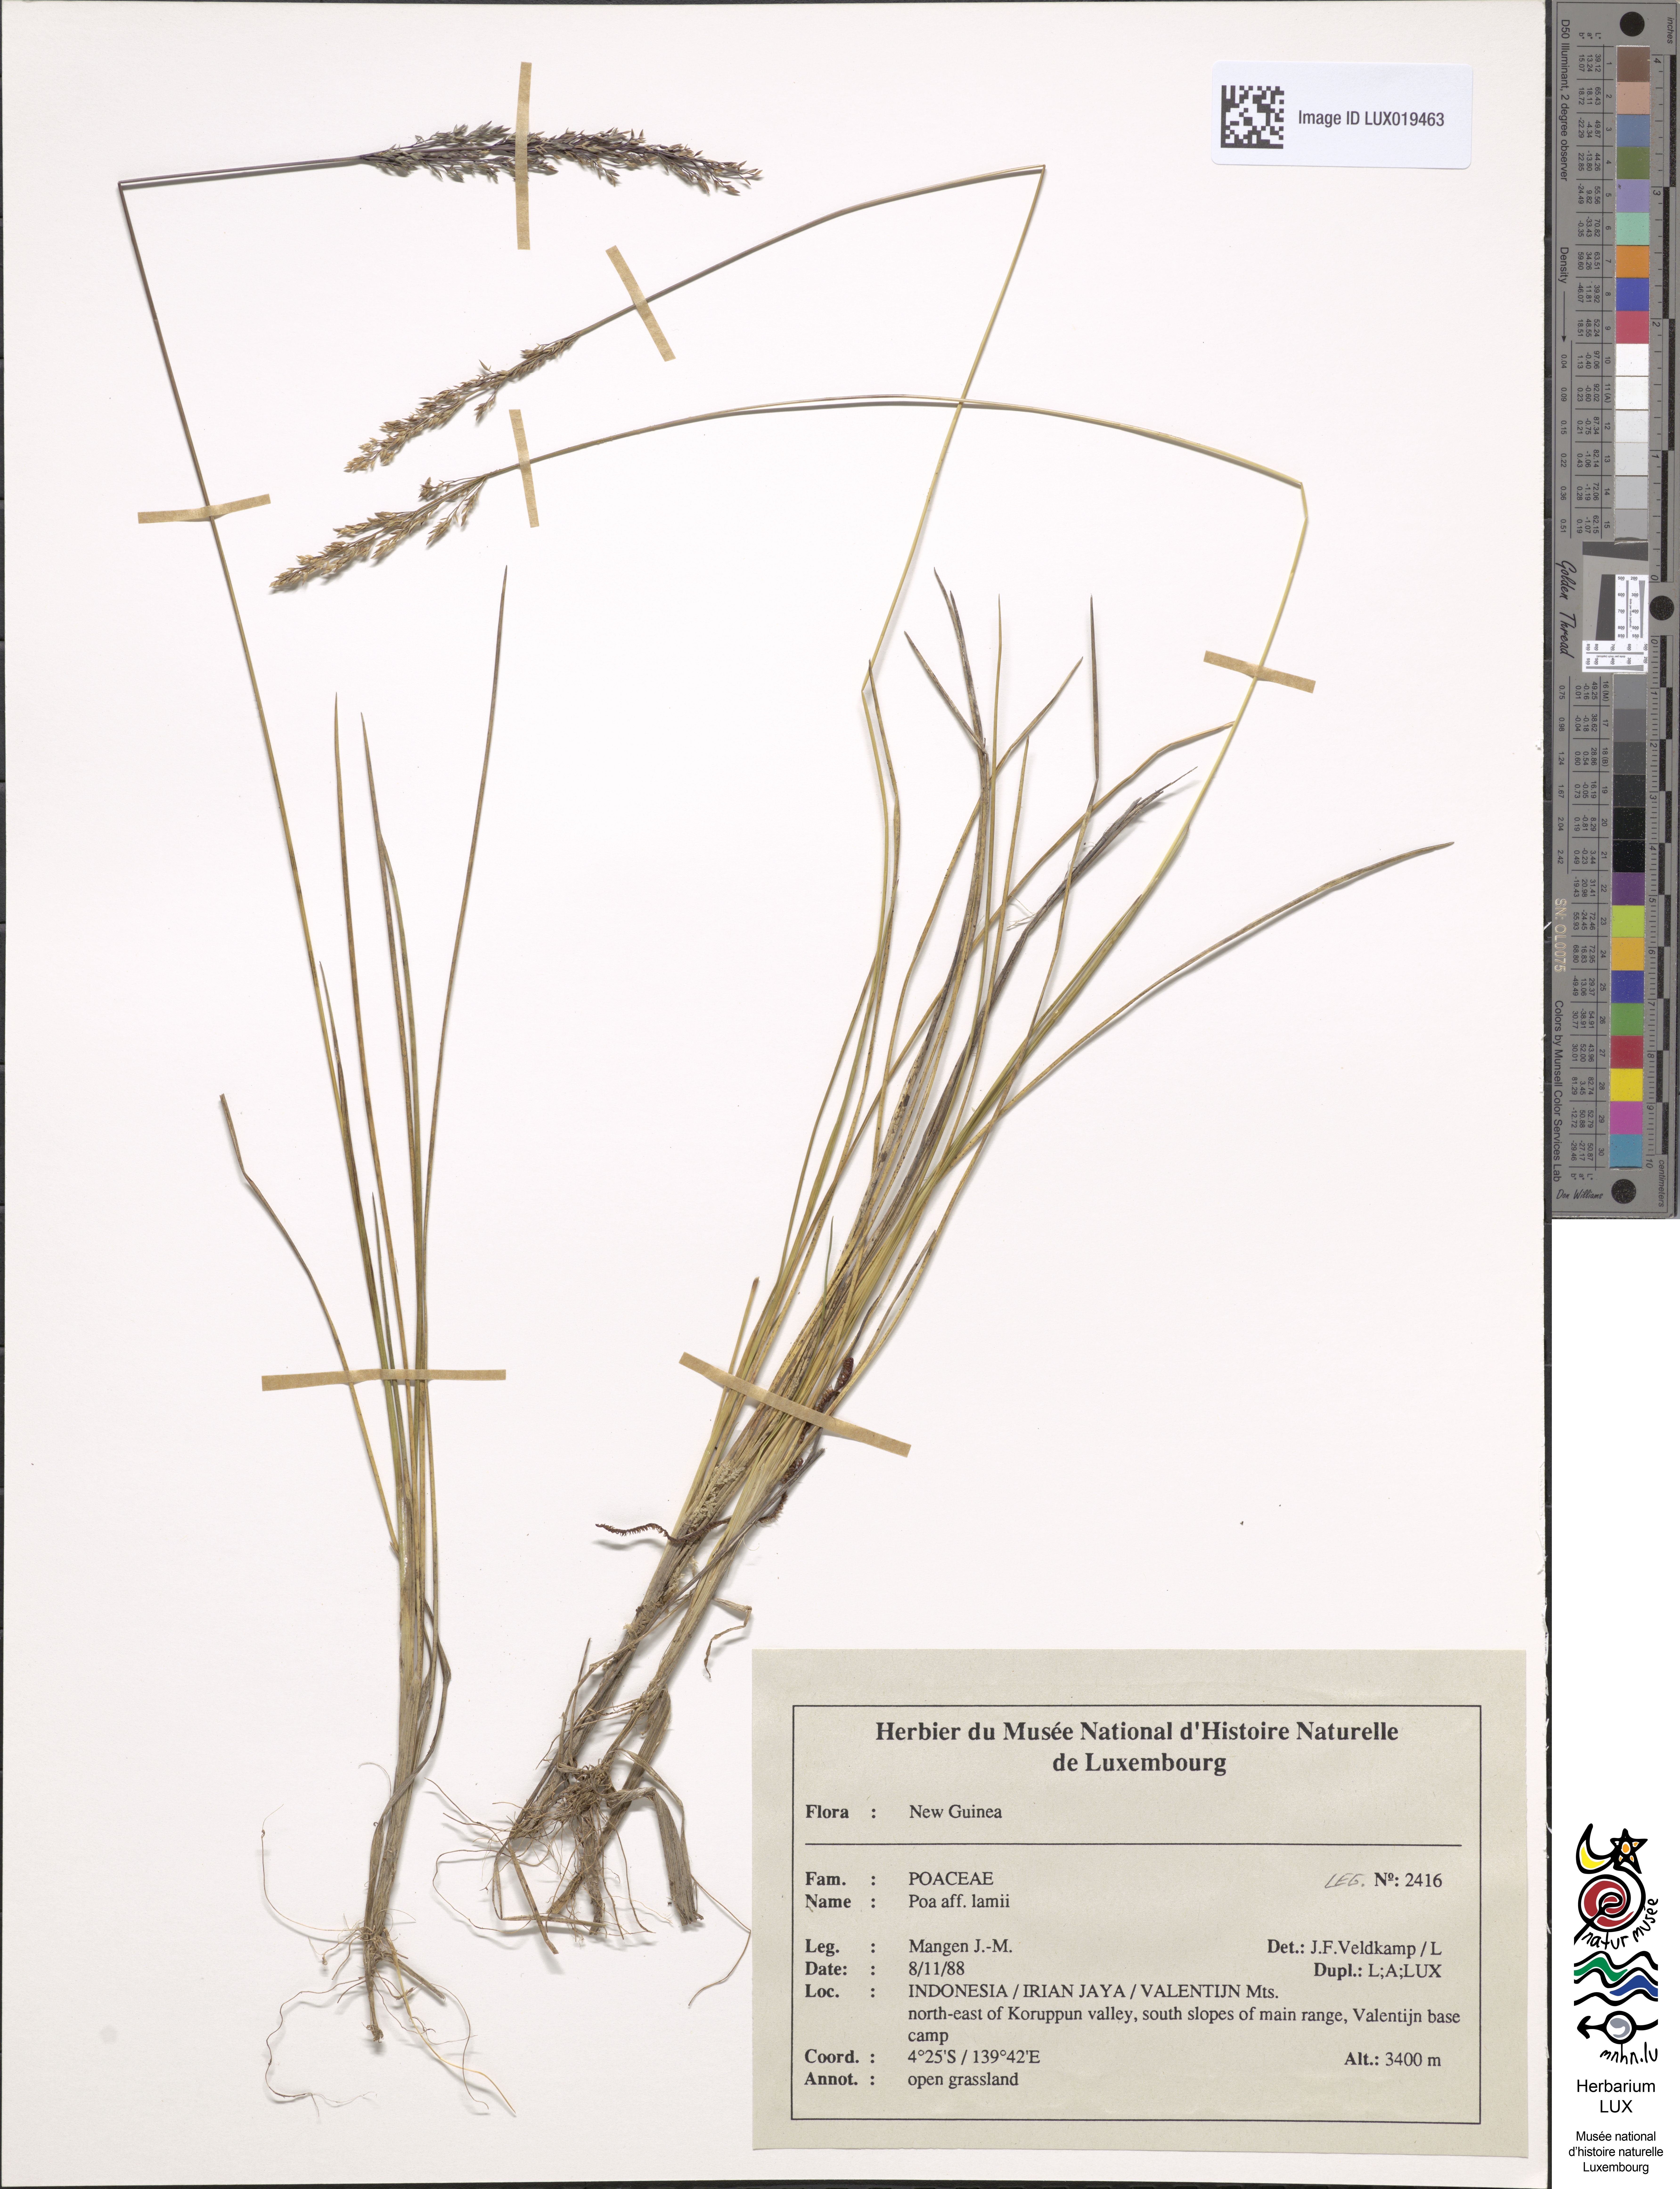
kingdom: Plantae
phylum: Tracheophyta
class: Liliopsida
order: Poales
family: Poaceae
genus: Poa
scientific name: Poa lamii
